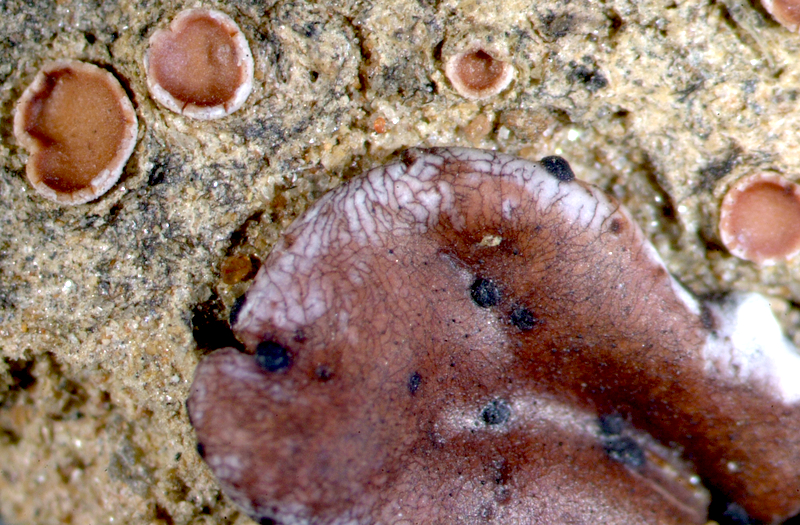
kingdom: Fungi
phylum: Ascomycota
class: Lecanoromycetes
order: Lecanorales
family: Psoraceae
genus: Psora
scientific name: Psora crenata
